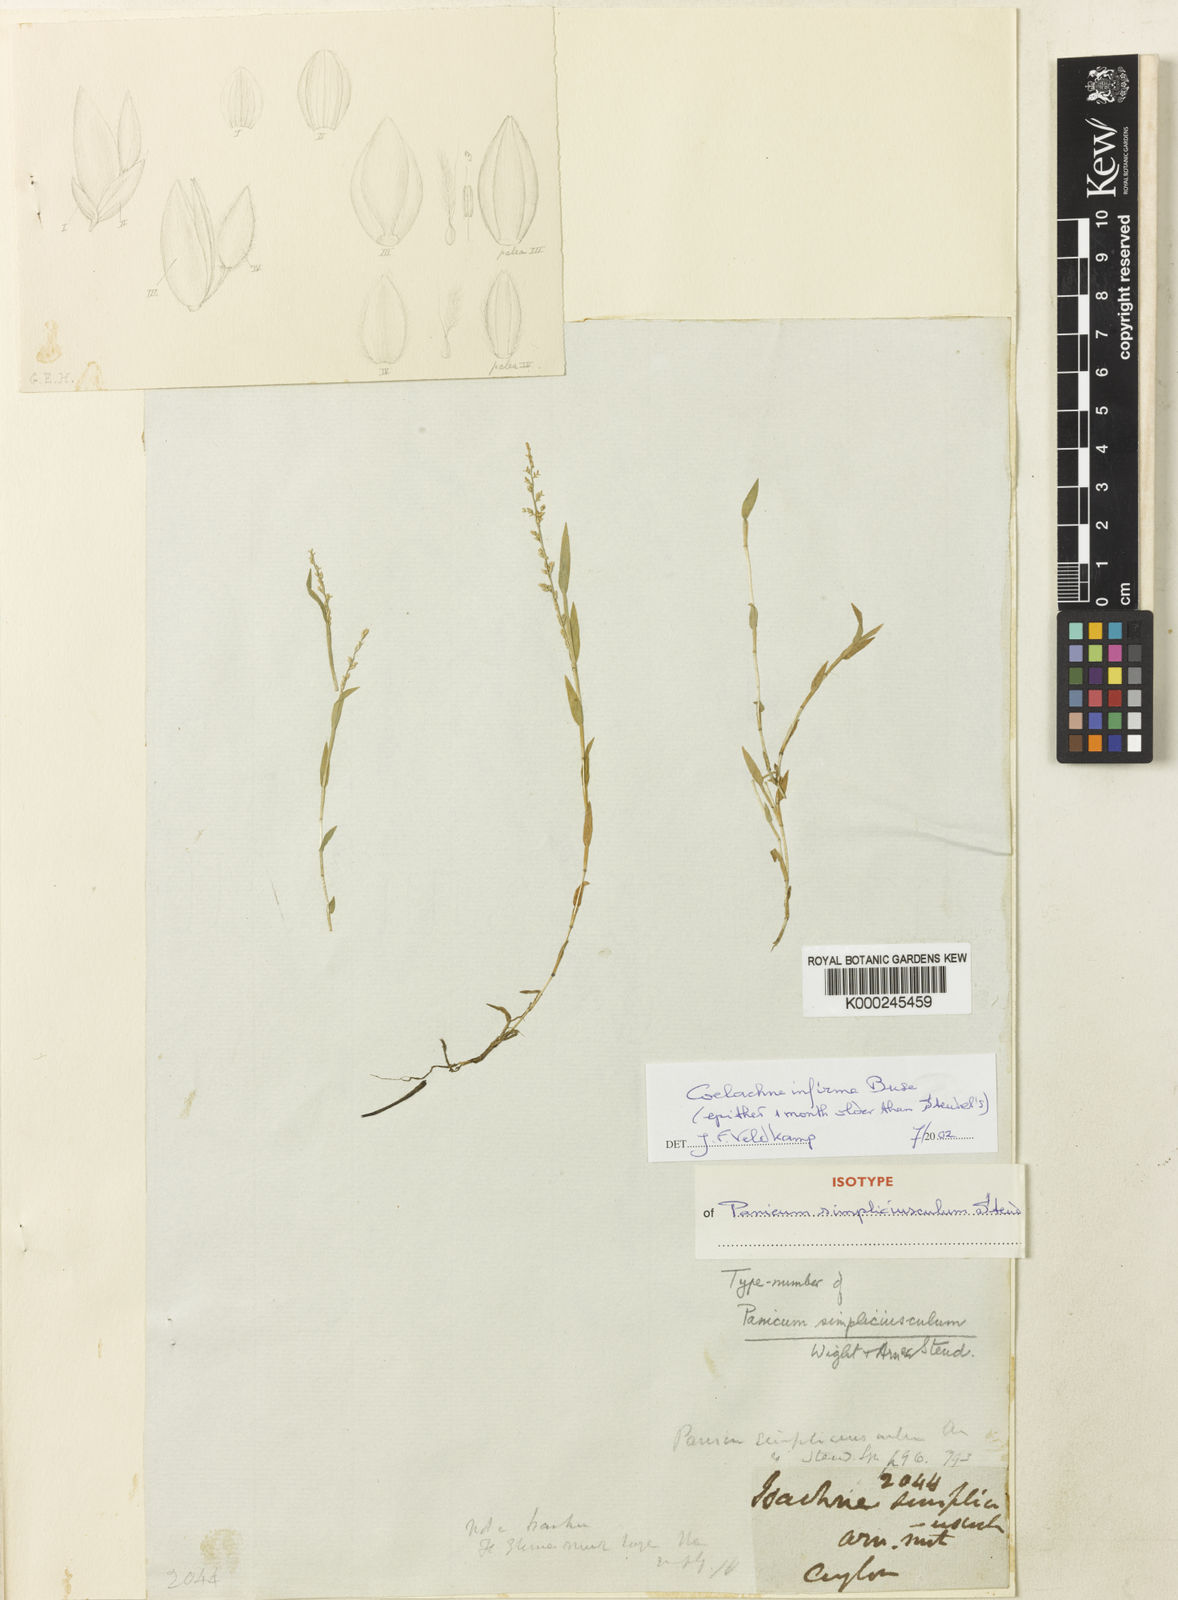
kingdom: Plantae
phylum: Tracheophyta
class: Liliopsida
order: Poales
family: Poaceae
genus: Coelachne
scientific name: Coelachne simpliciuscula
